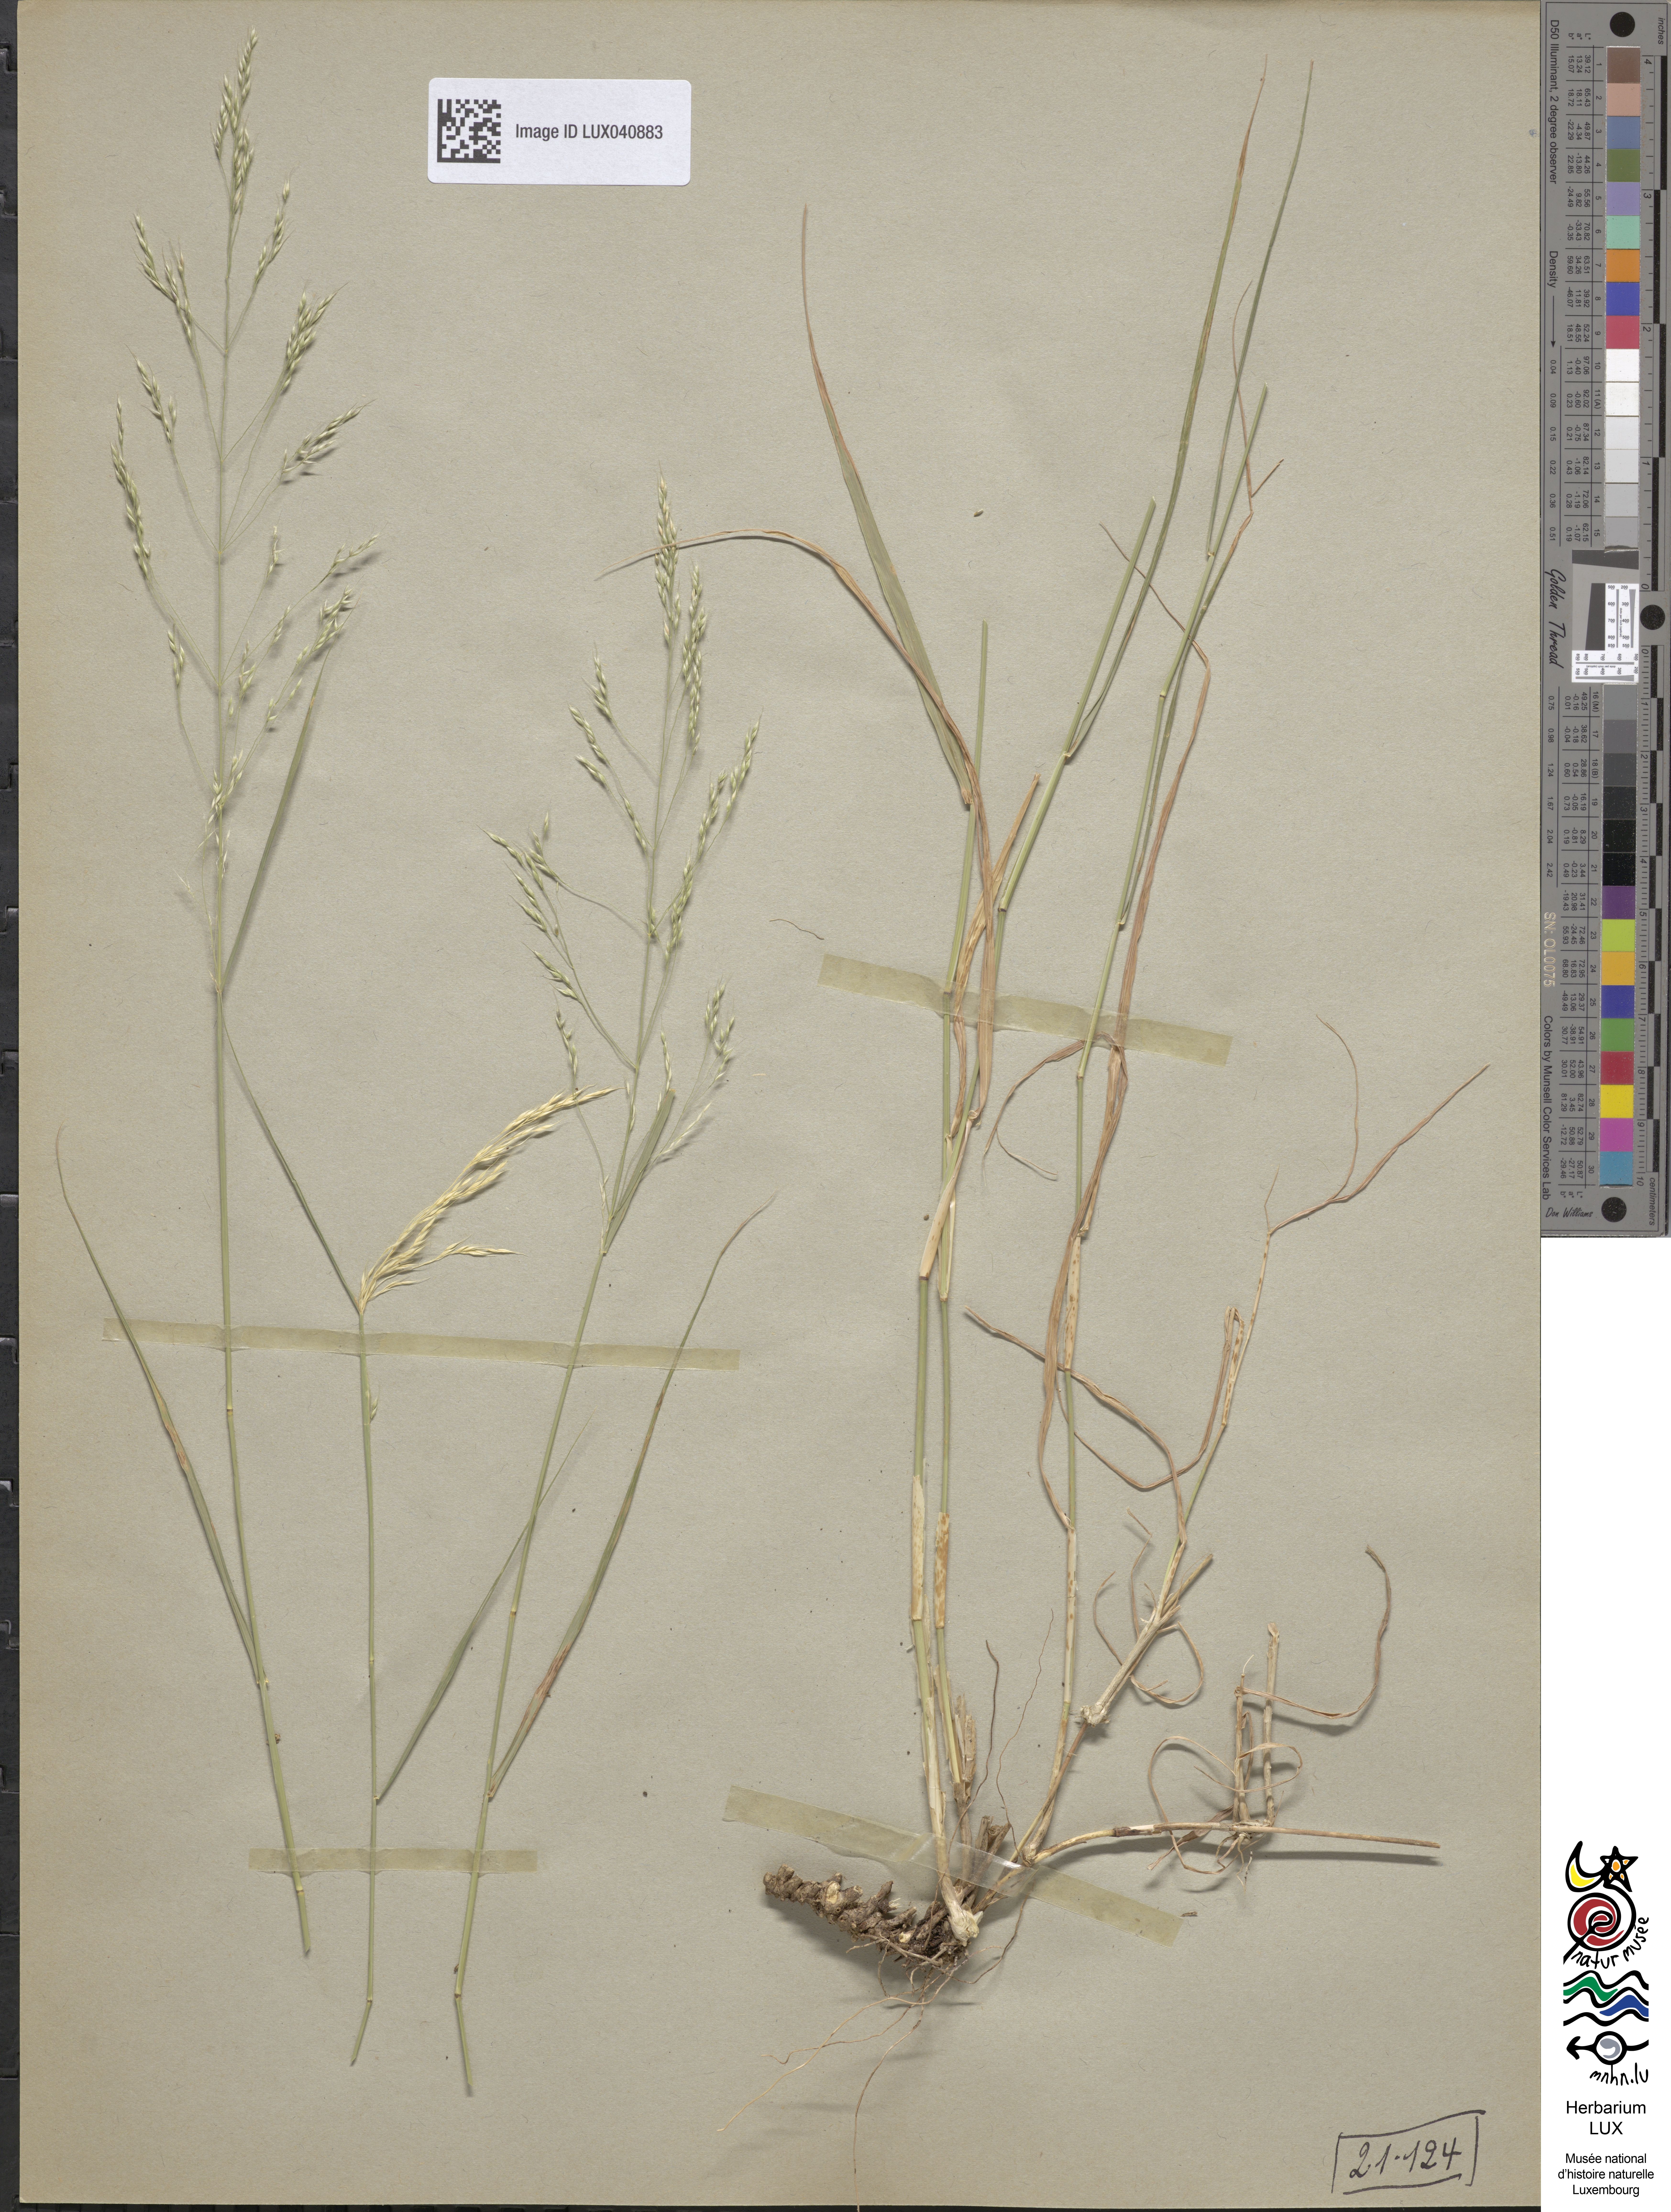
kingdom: Plantae
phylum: Tracheophyta
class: Liliopsida
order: Poales
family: Poaceae
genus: Oloptum
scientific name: Oloptum miliaceum
